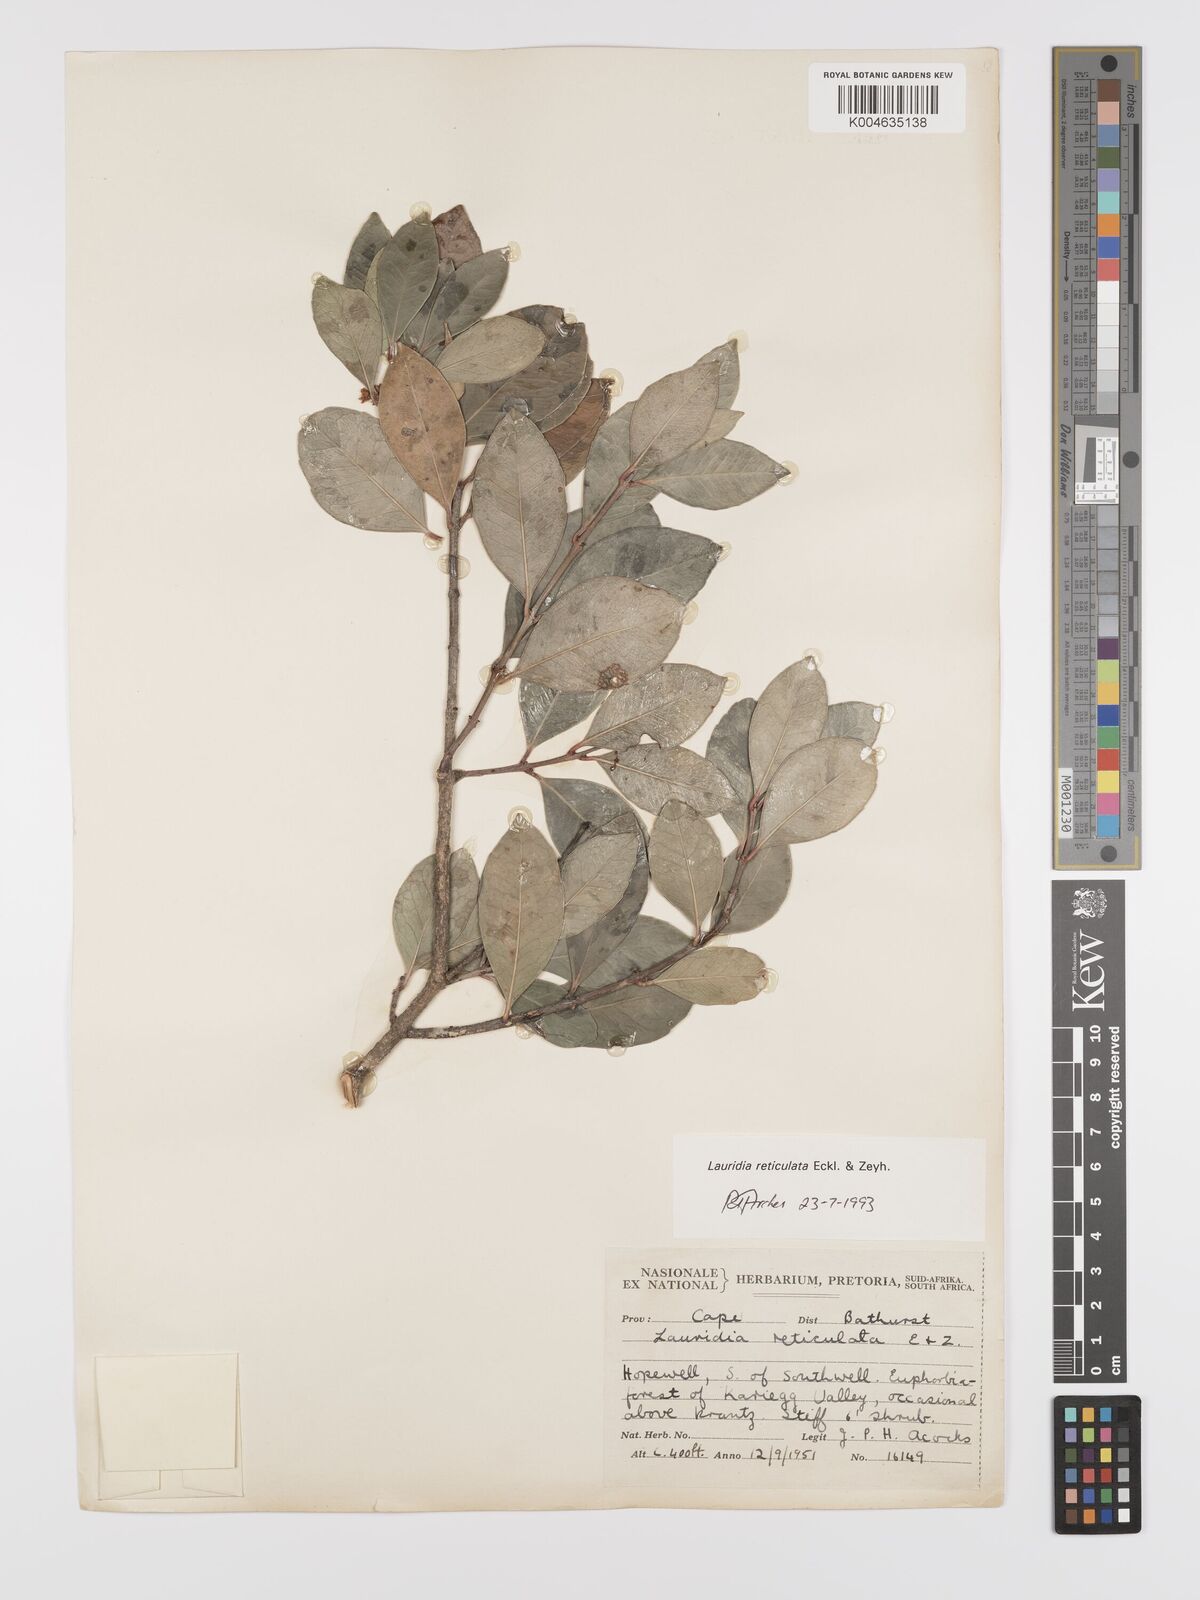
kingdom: Plantae
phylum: Tracheophyta
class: Magnoliopsida
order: Celastrales
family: Celastraceae
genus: Lauridia
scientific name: Lauridia reticulata
